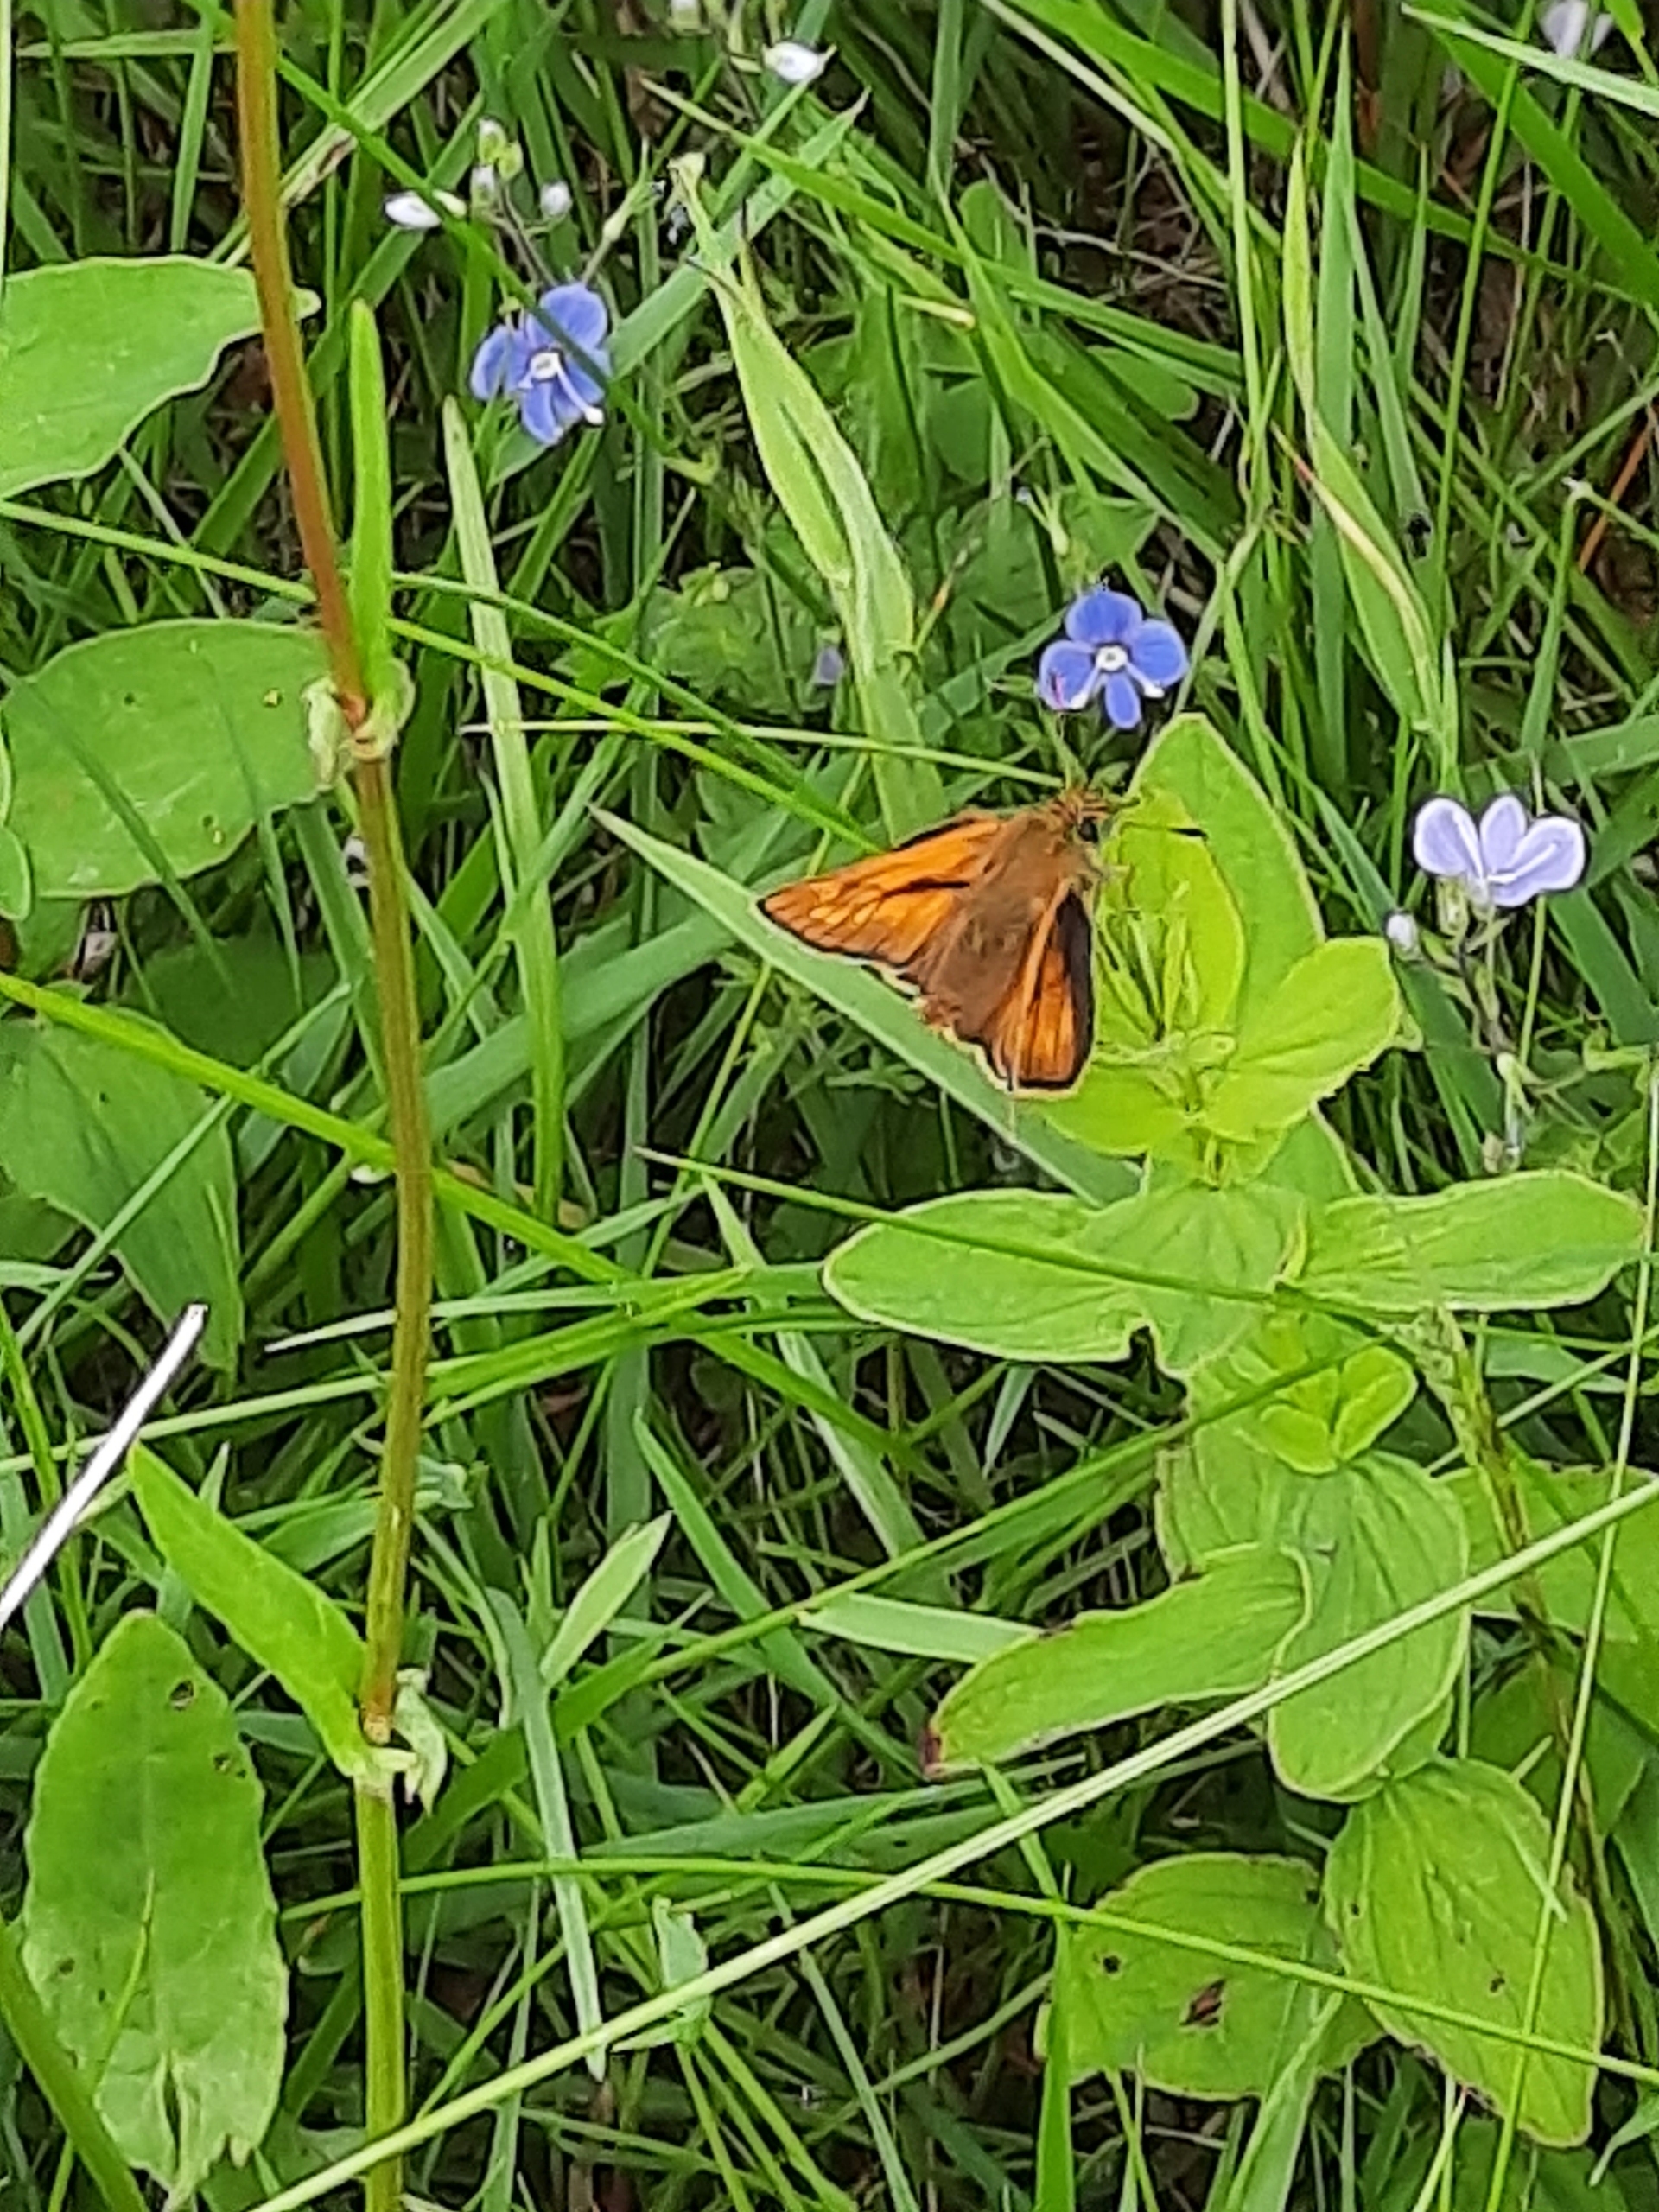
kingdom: Animalia
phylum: Arthropoda
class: Insecta
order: Lepidoptera
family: Hesperiidae
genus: Ochlodes
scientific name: Ochlodes venata
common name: Stor bredpande
